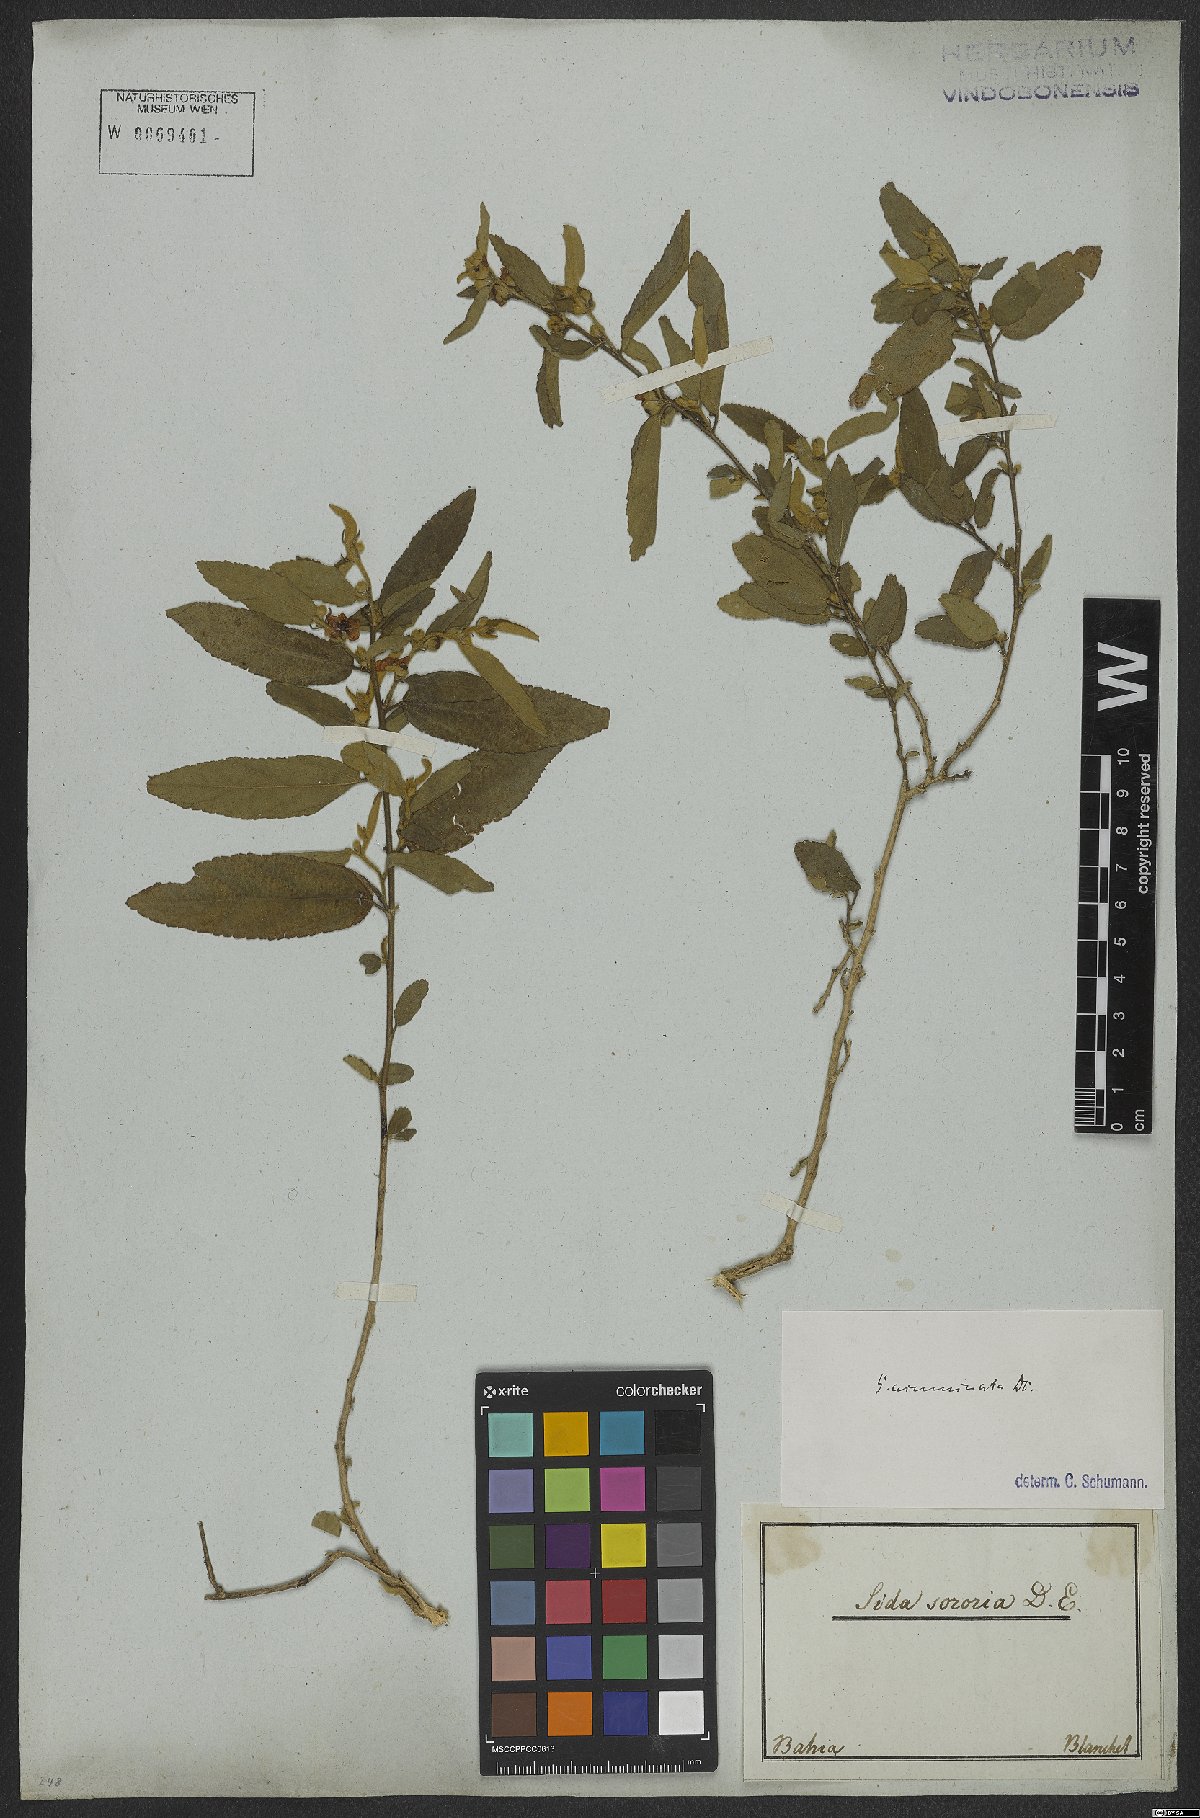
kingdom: Plantae
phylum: Tracheophyta
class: Magnoliopsida
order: Malvales
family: Malvaceae
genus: Sidastrum
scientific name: Sidastrum multiflorum
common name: Manyflower sandmallow
